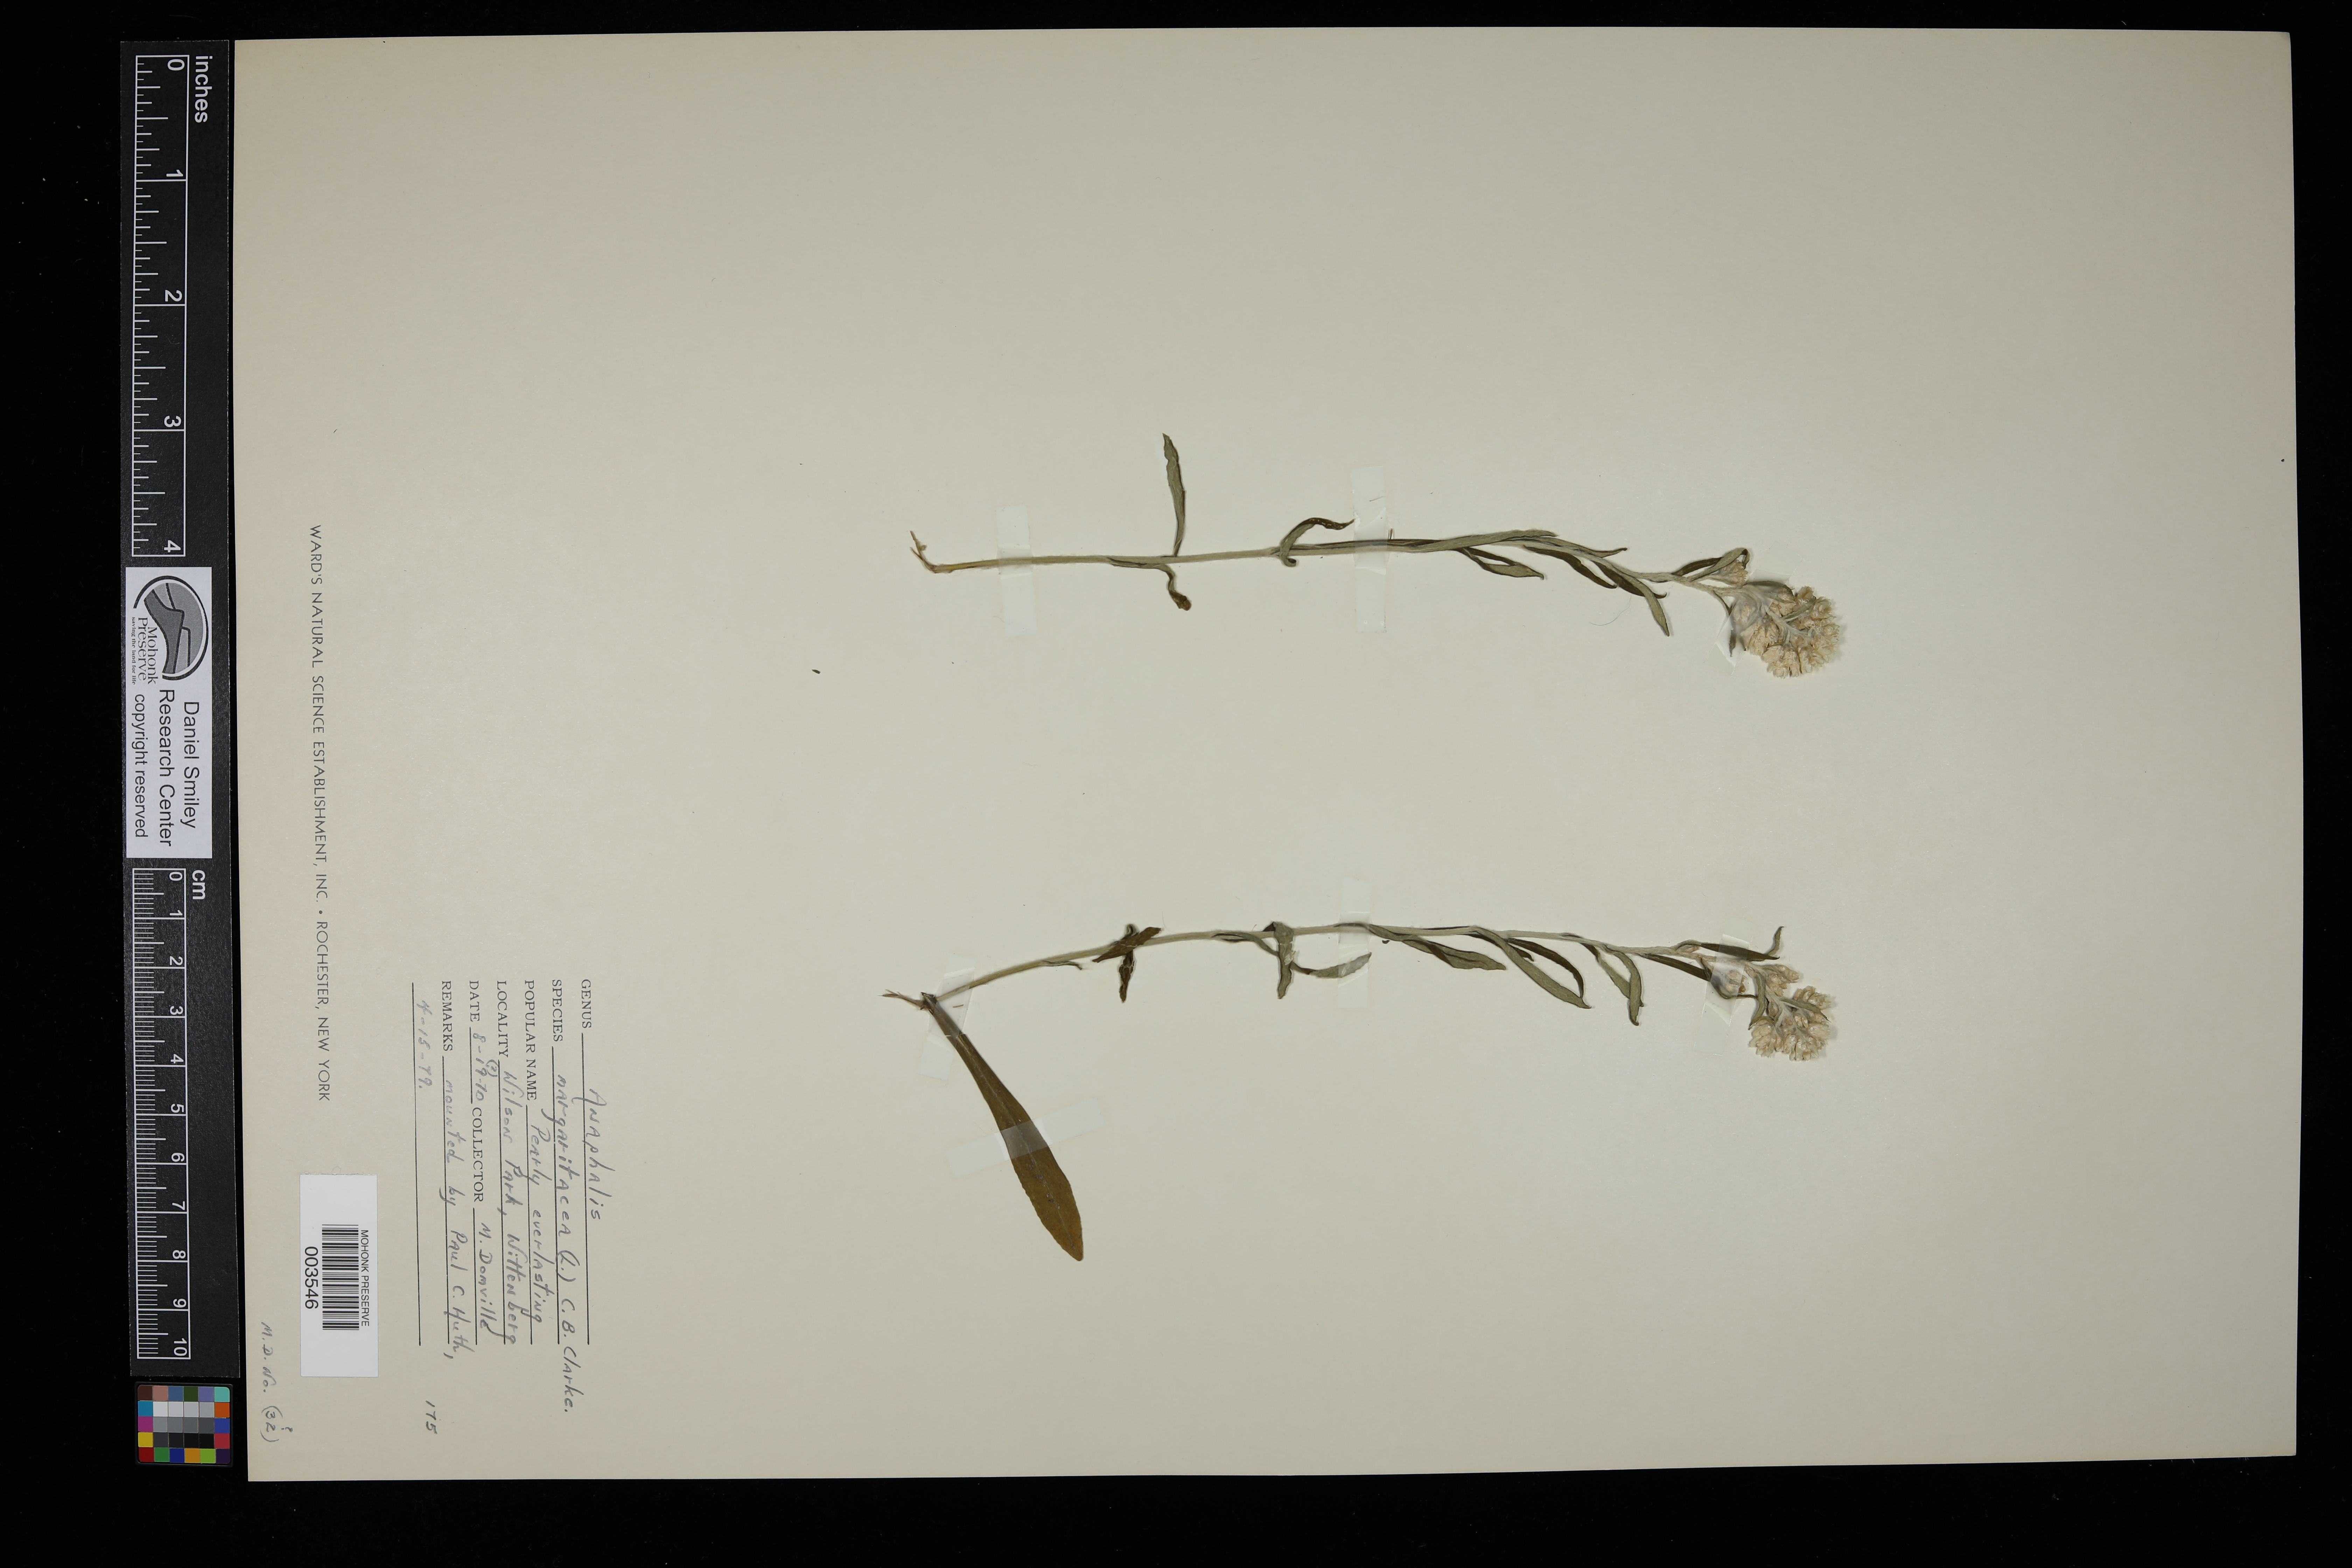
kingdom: Plantae
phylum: Tracheophyta
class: Magnoliopsida
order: Asterales
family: Asteraceae
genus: Anaphalis
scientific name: Anaphalis margaritacea
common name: Pearly everlasting
